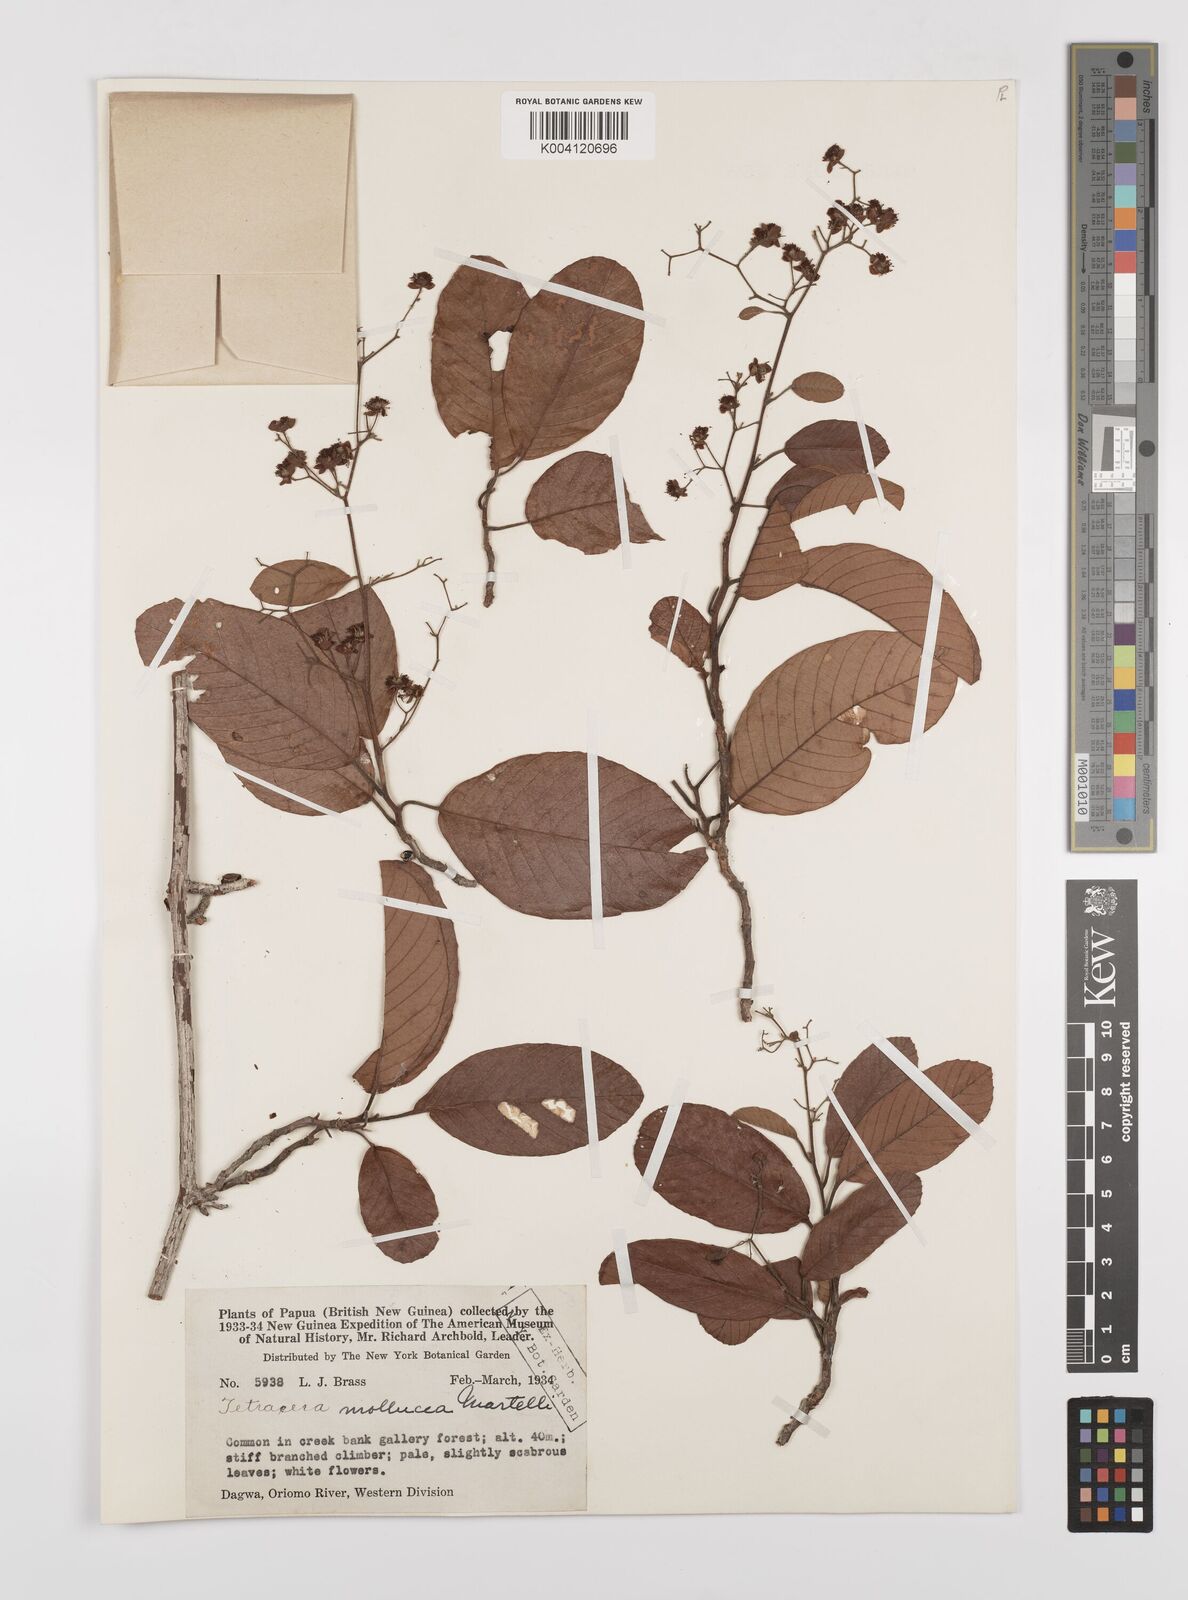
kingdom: Plantae
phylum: Tracheophyta
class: Magnoliopsida
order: Dilleniales
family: Dilleniaceae
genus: Tetracera
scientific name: Tetracera nordtiana
